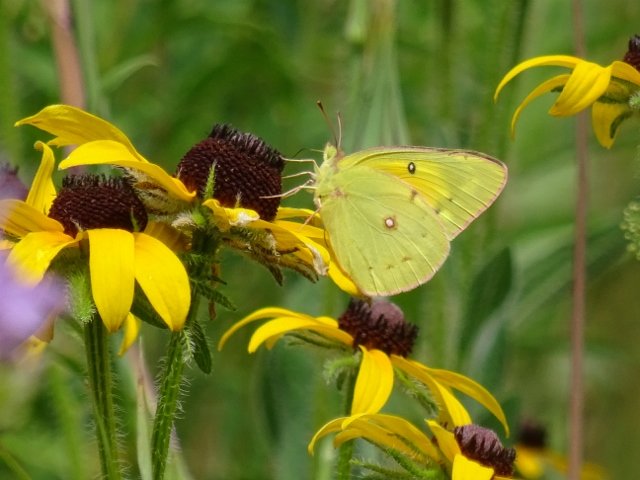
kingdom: Animalia
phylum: Arthropoda
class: Insecta
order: Lepidoptera
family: Pieridae
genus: Colias
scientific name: Colias eurytheme
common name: Orange Sulphur
